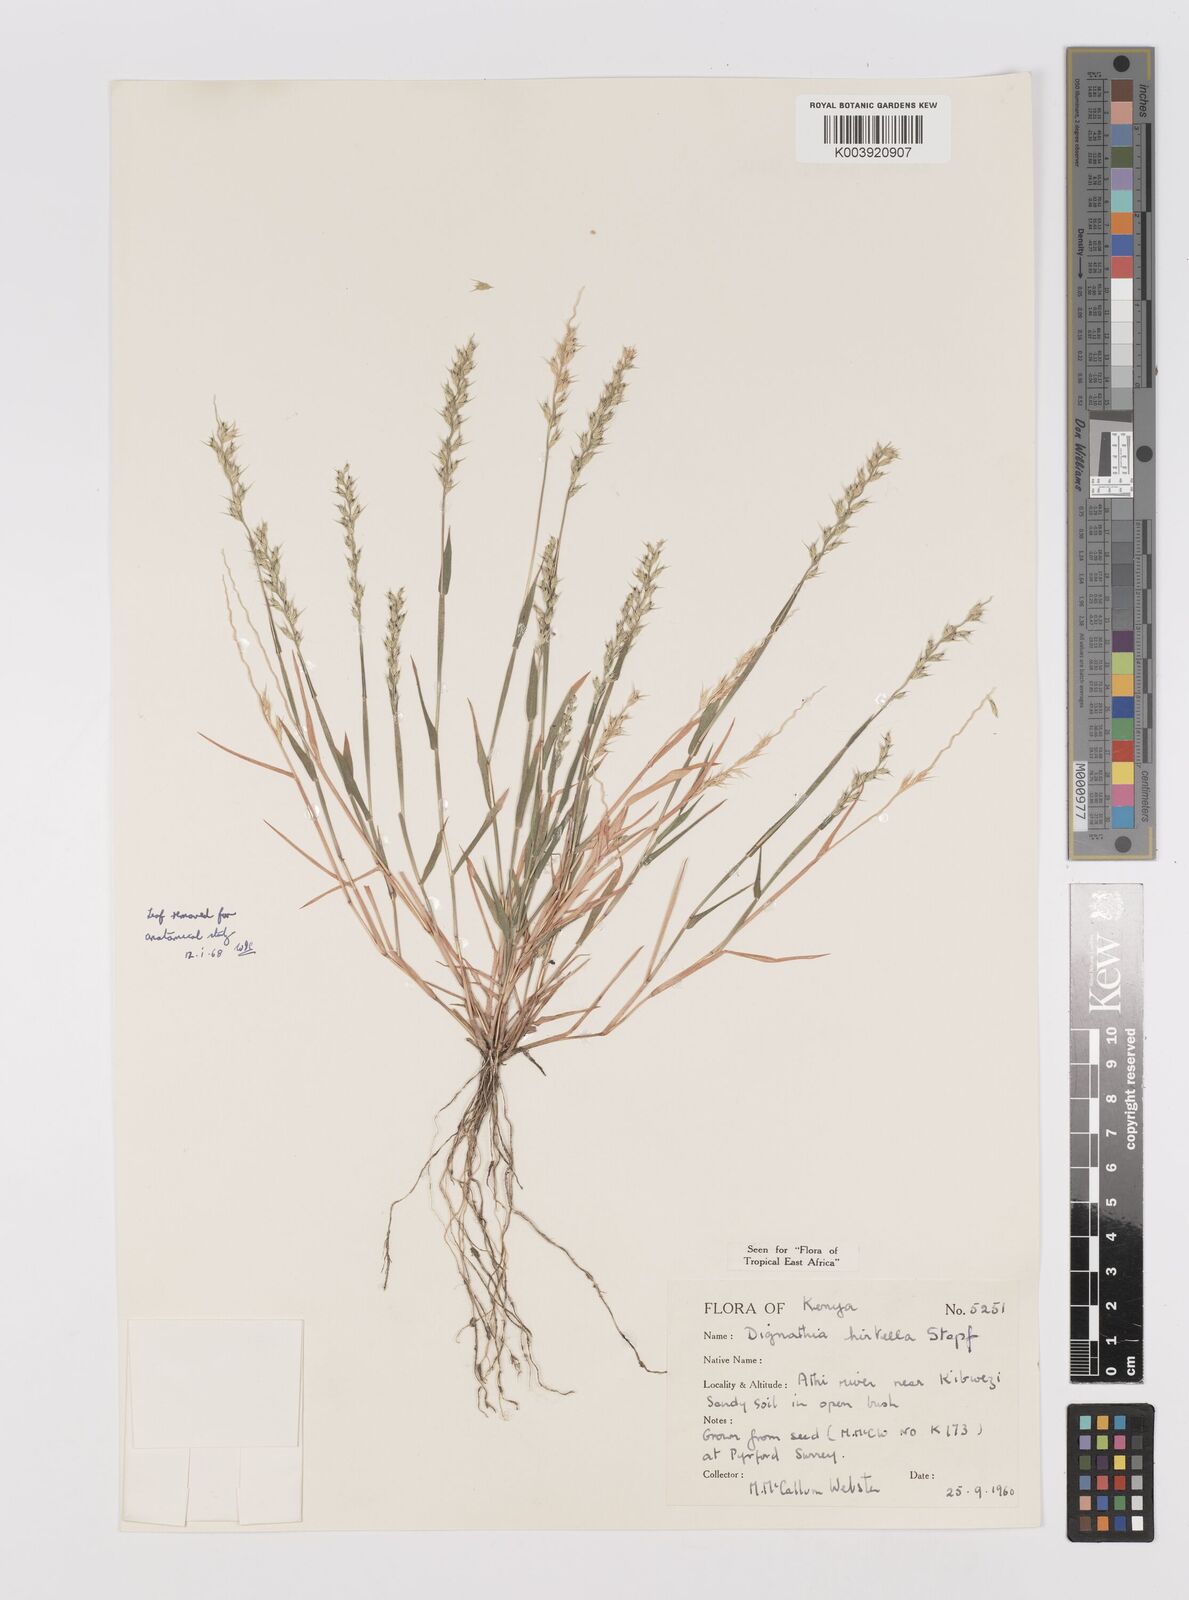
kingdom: Plantae
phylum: Tracheophyta
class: Liliopsida
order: Poales
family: Poaceae
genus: Dignathia
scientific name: Dignathia hirtella
